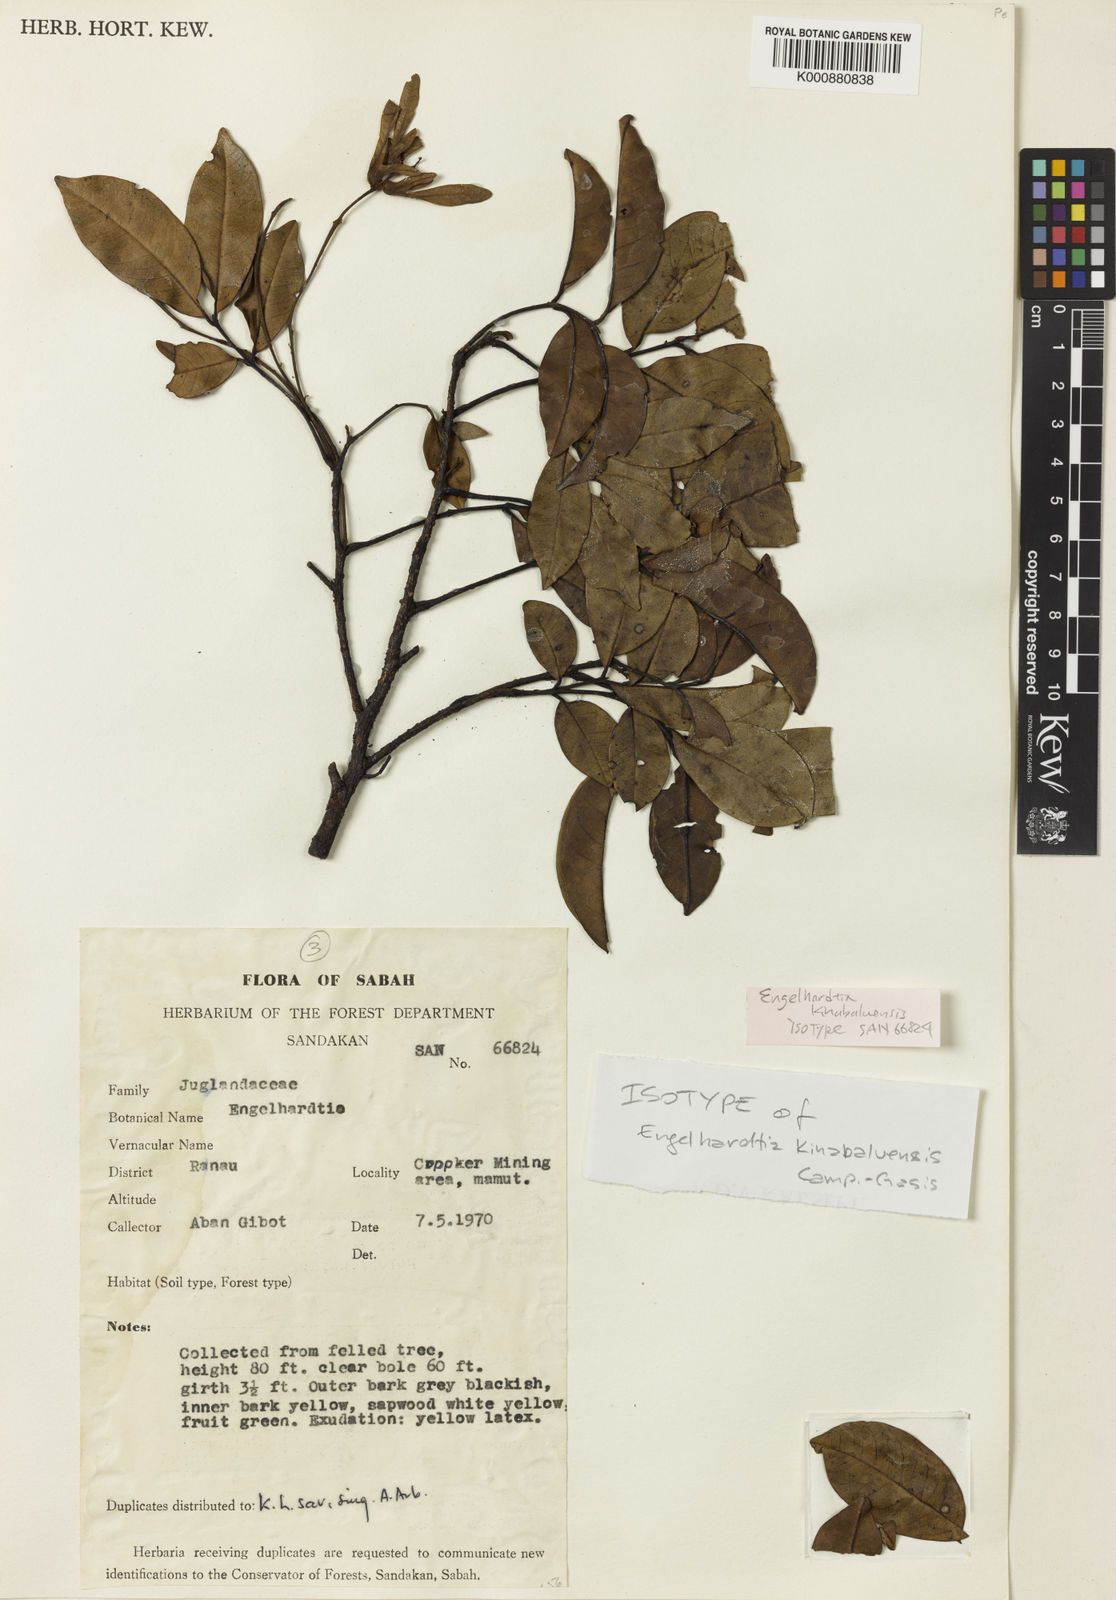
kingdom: Plantae
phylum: Tracheophyta
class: Magnoliopsida
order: Fagales
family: Juglandaceae
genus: Engelhardia
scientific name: Engelhardia kinabaluensis
